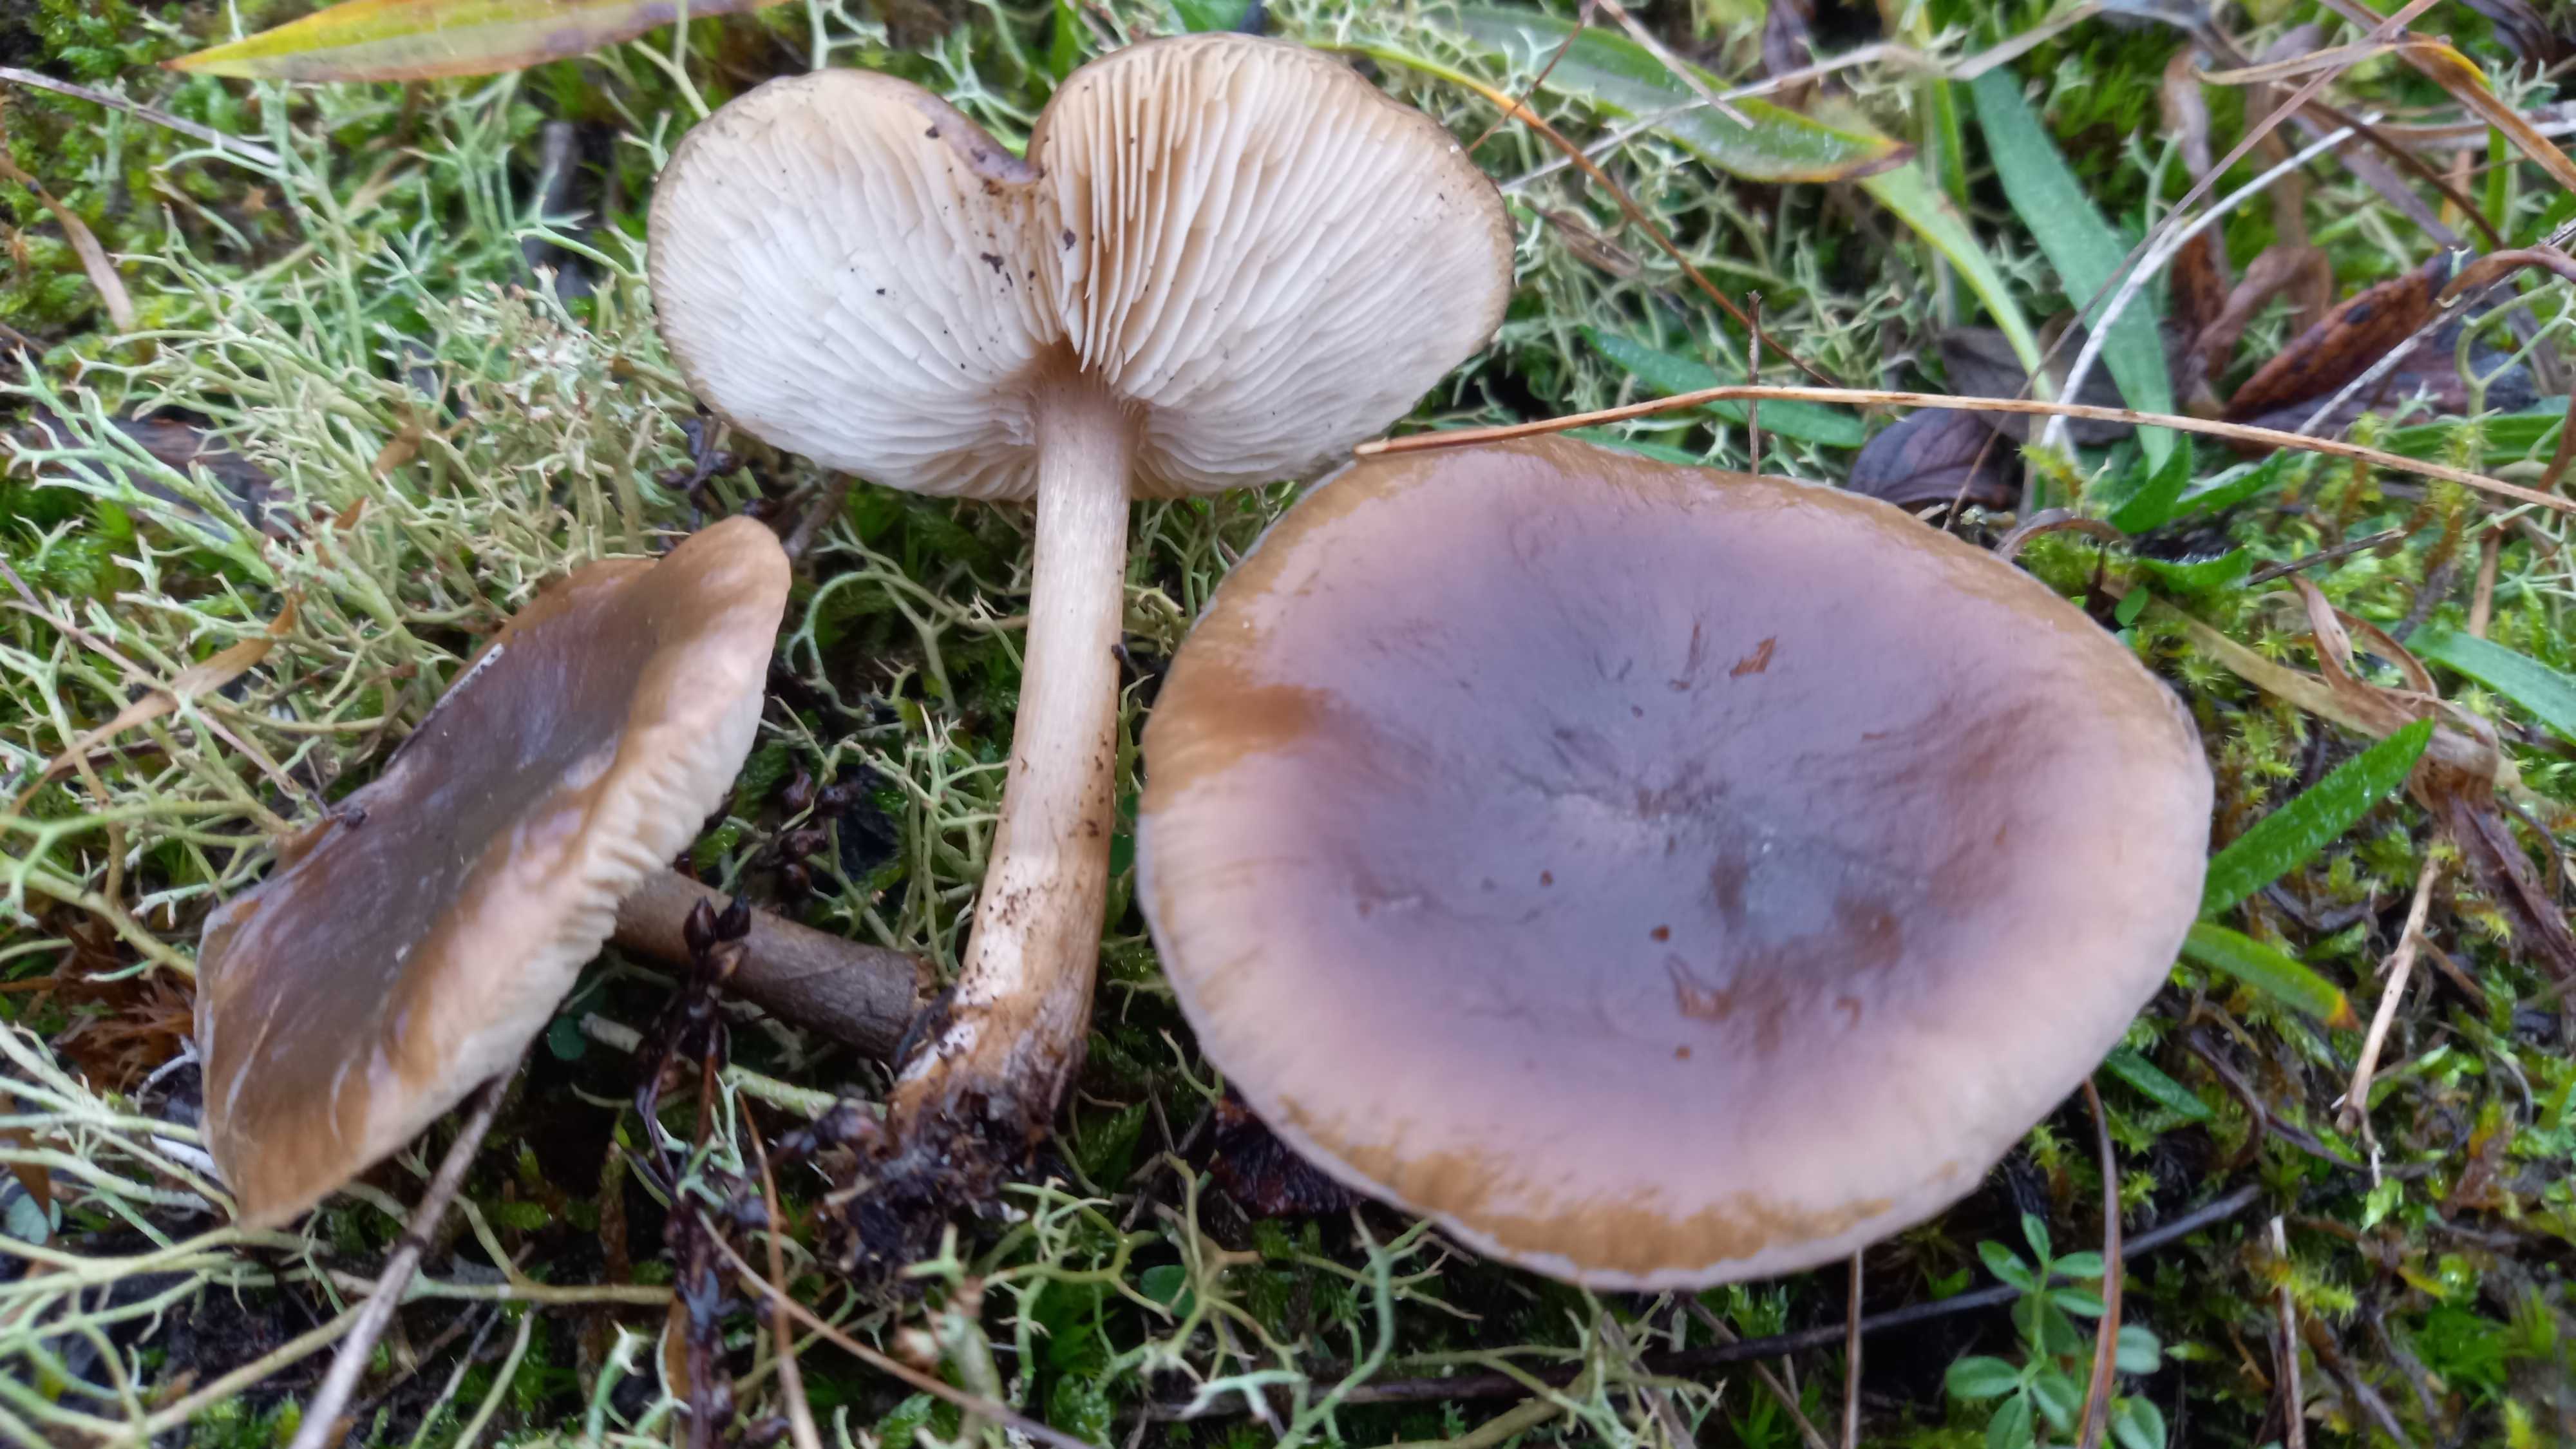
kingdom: Fungi
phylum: Basidiomycota
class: Agaricomycetes
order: Agaricales
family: Tricholomataceae
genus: Melanoleuca
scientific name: Melanoleuca
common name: munkehat
